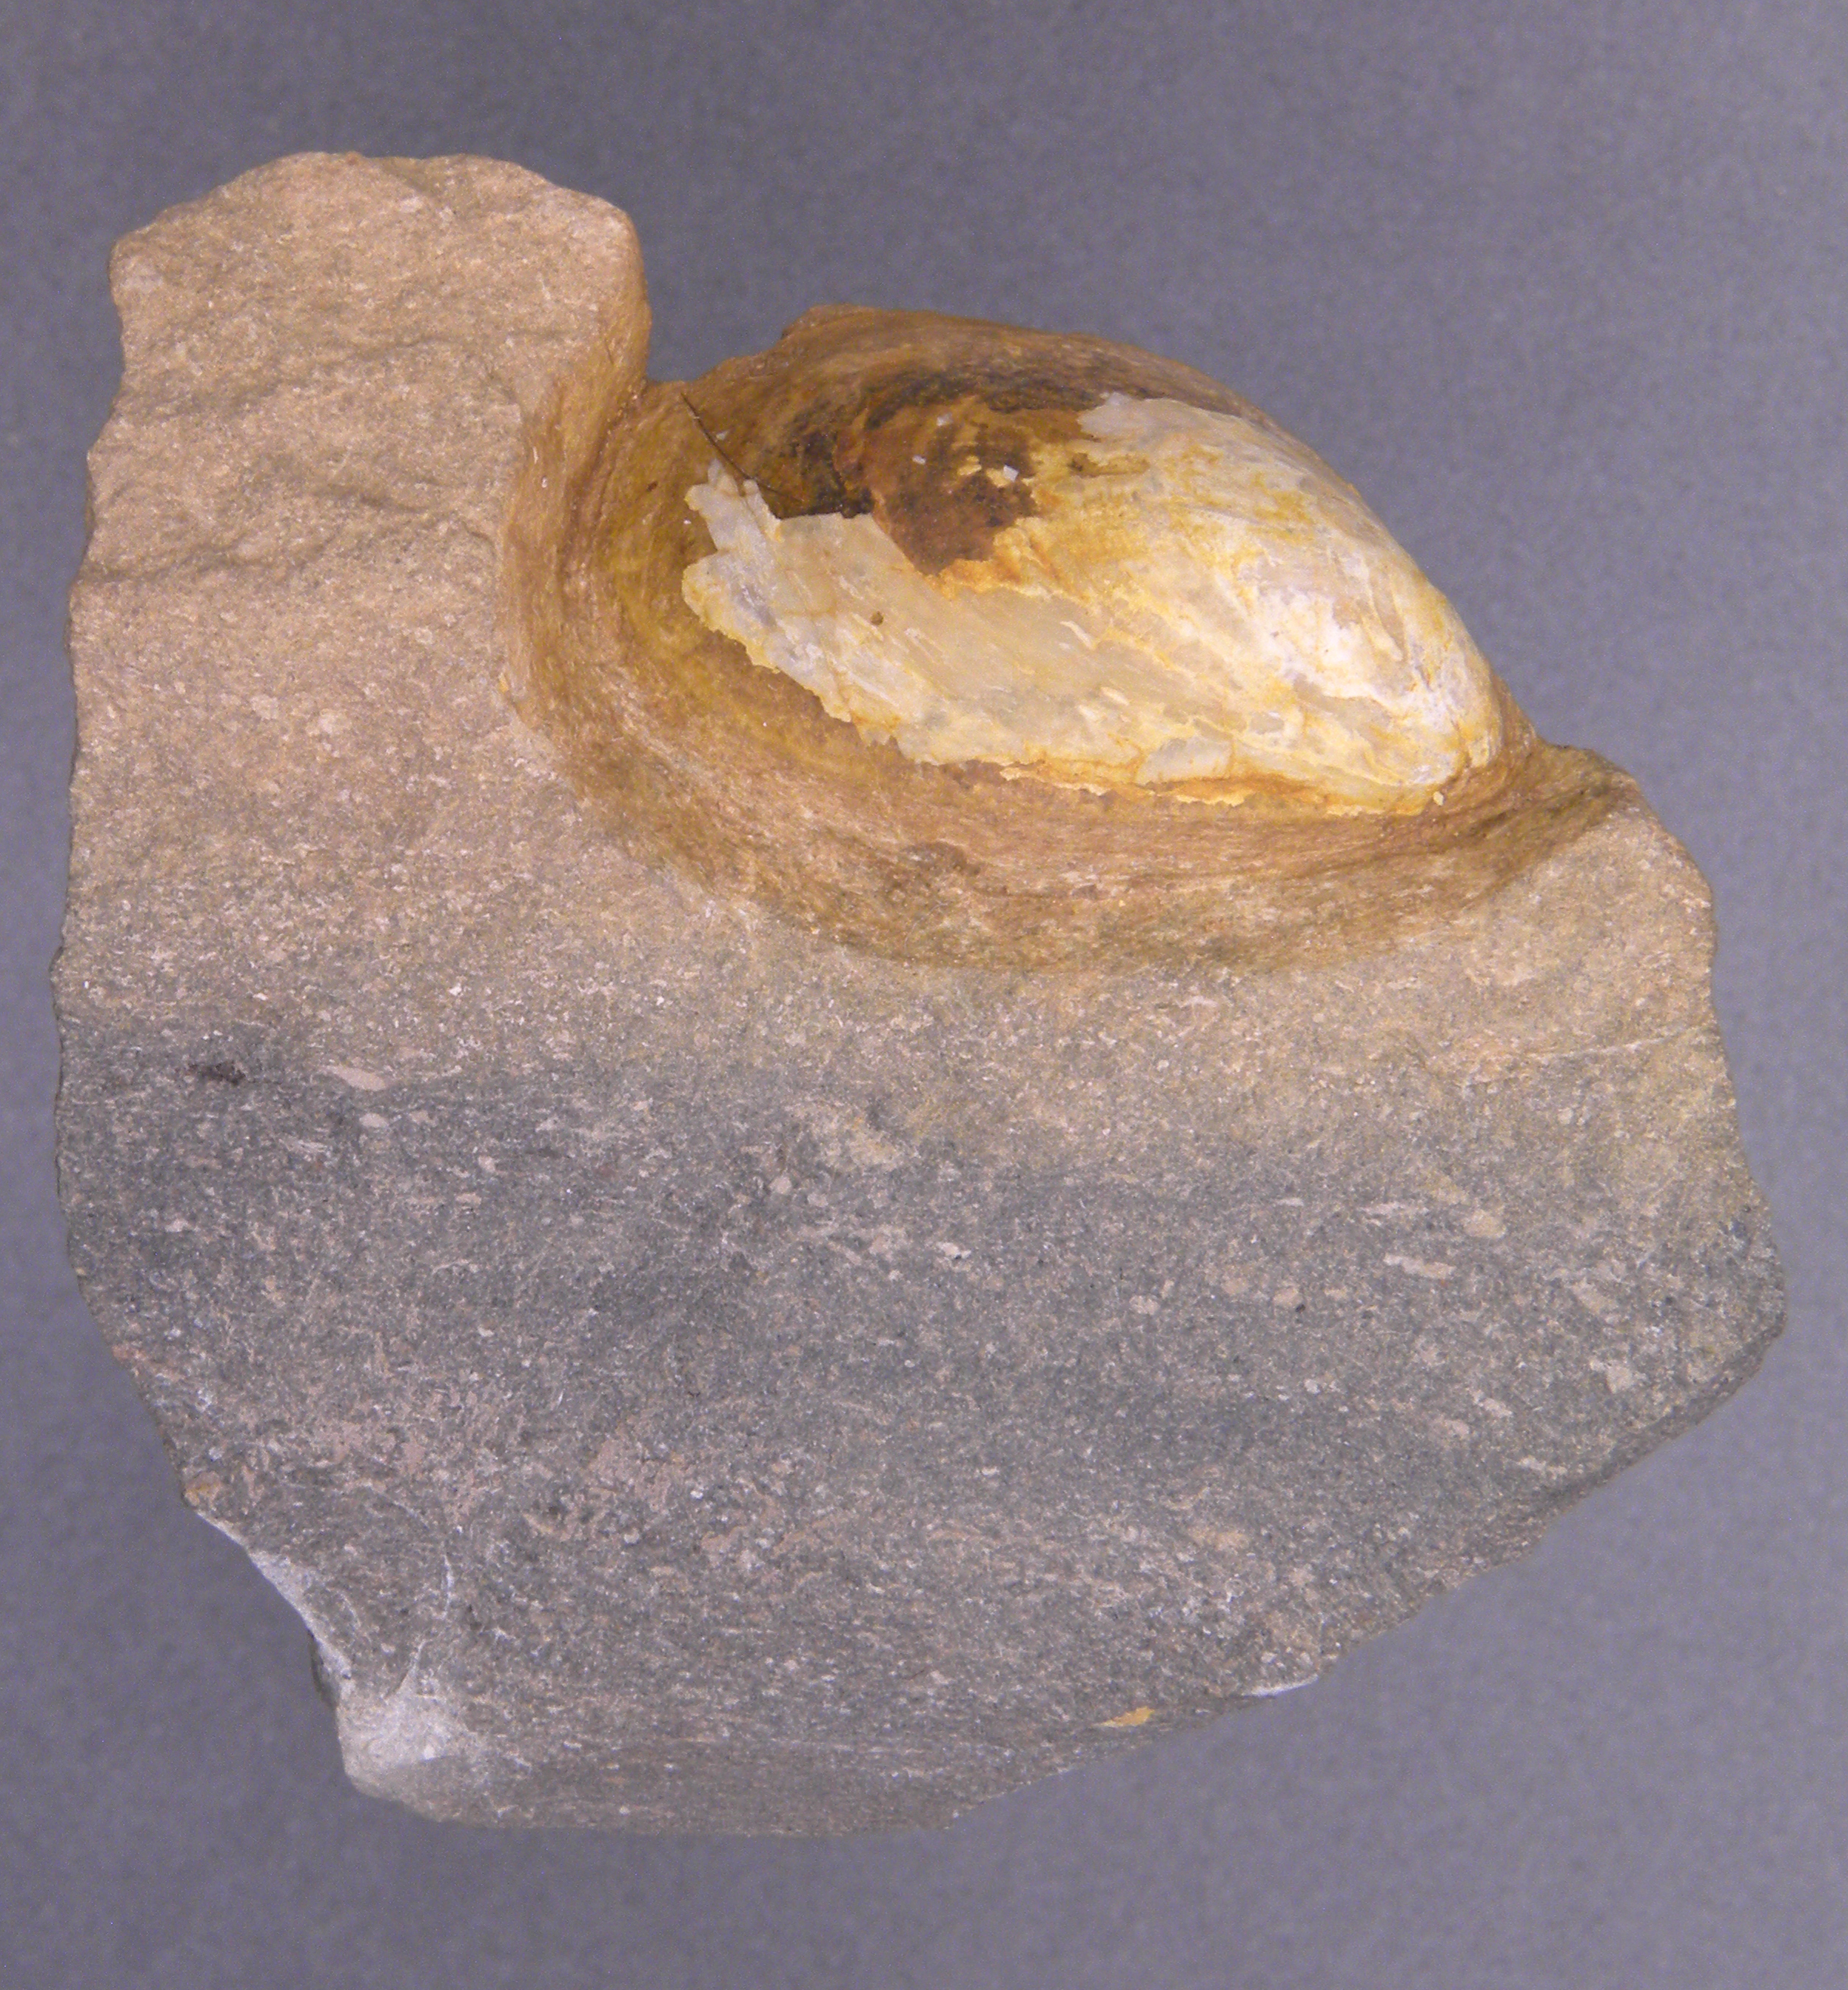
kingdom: Animalia
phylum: Mollusca
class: Bivalvia
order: Myalinida
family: Inoceramidae
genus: Inoceramus
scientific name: Inoceramus
